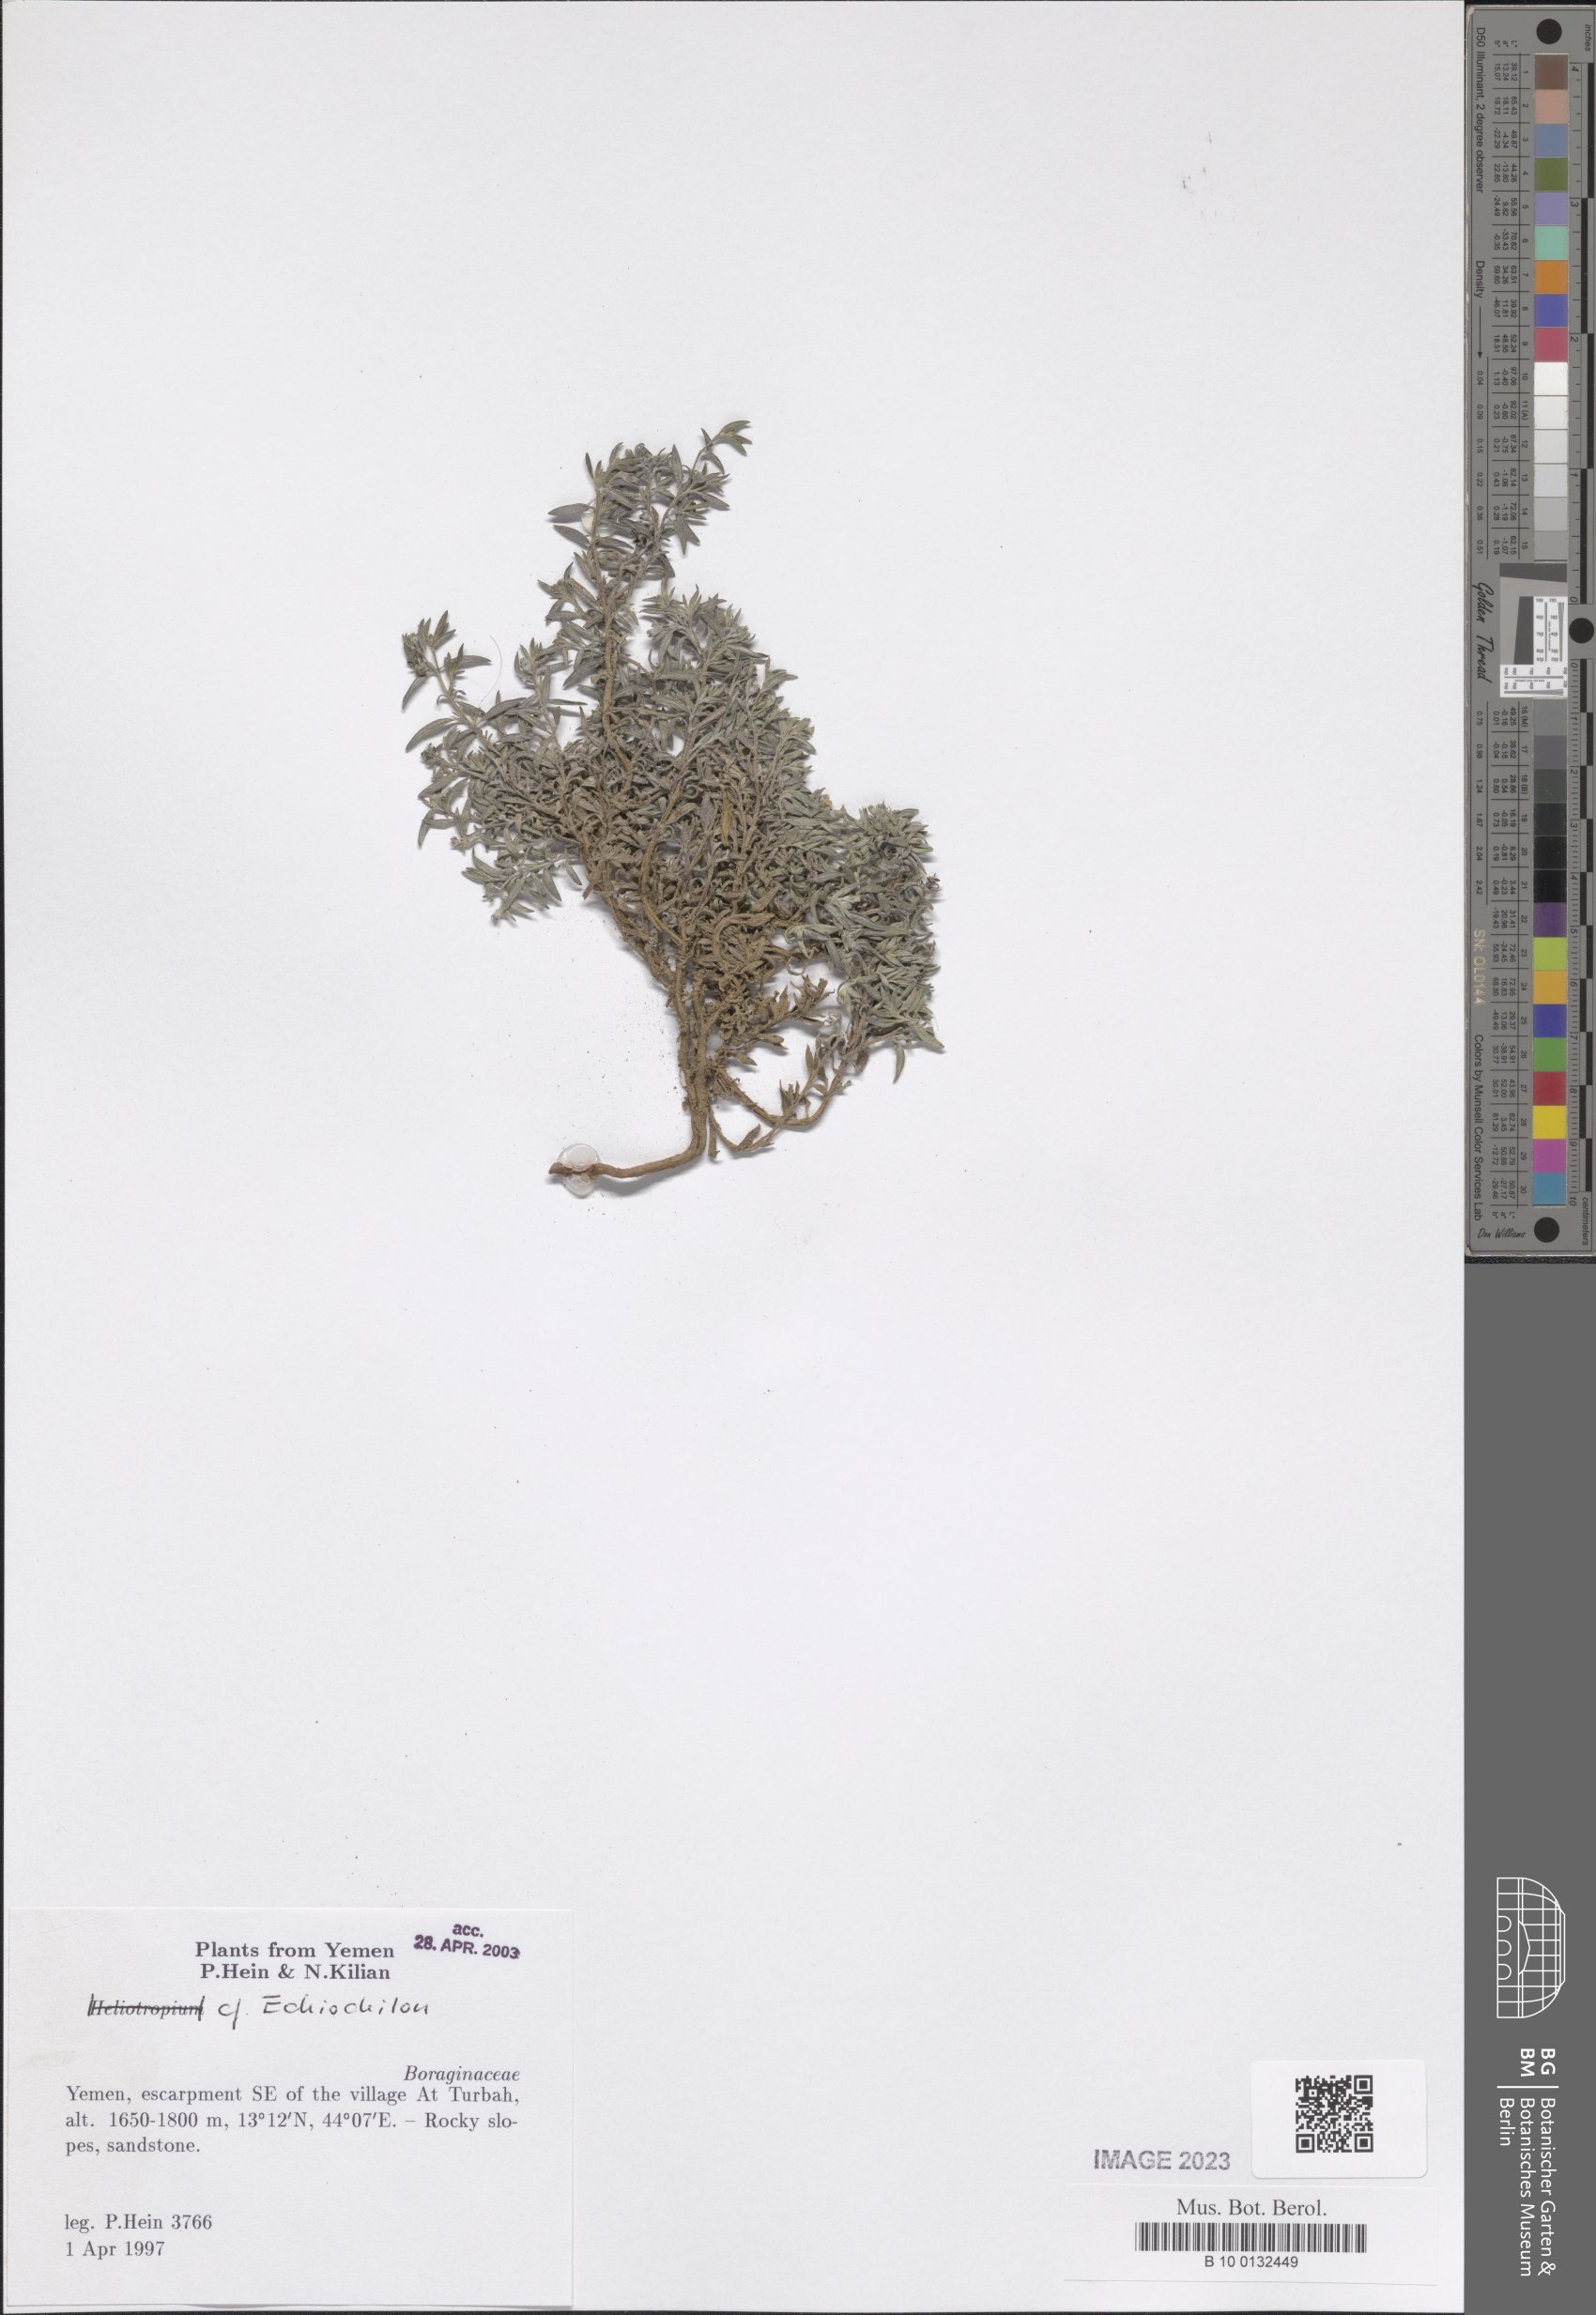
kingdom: Plantae
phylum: Tracheophyta
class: Magnoliopsida
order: Boraginales
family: Boraginaceae
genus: Echiochilon
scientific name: Echiochilon
